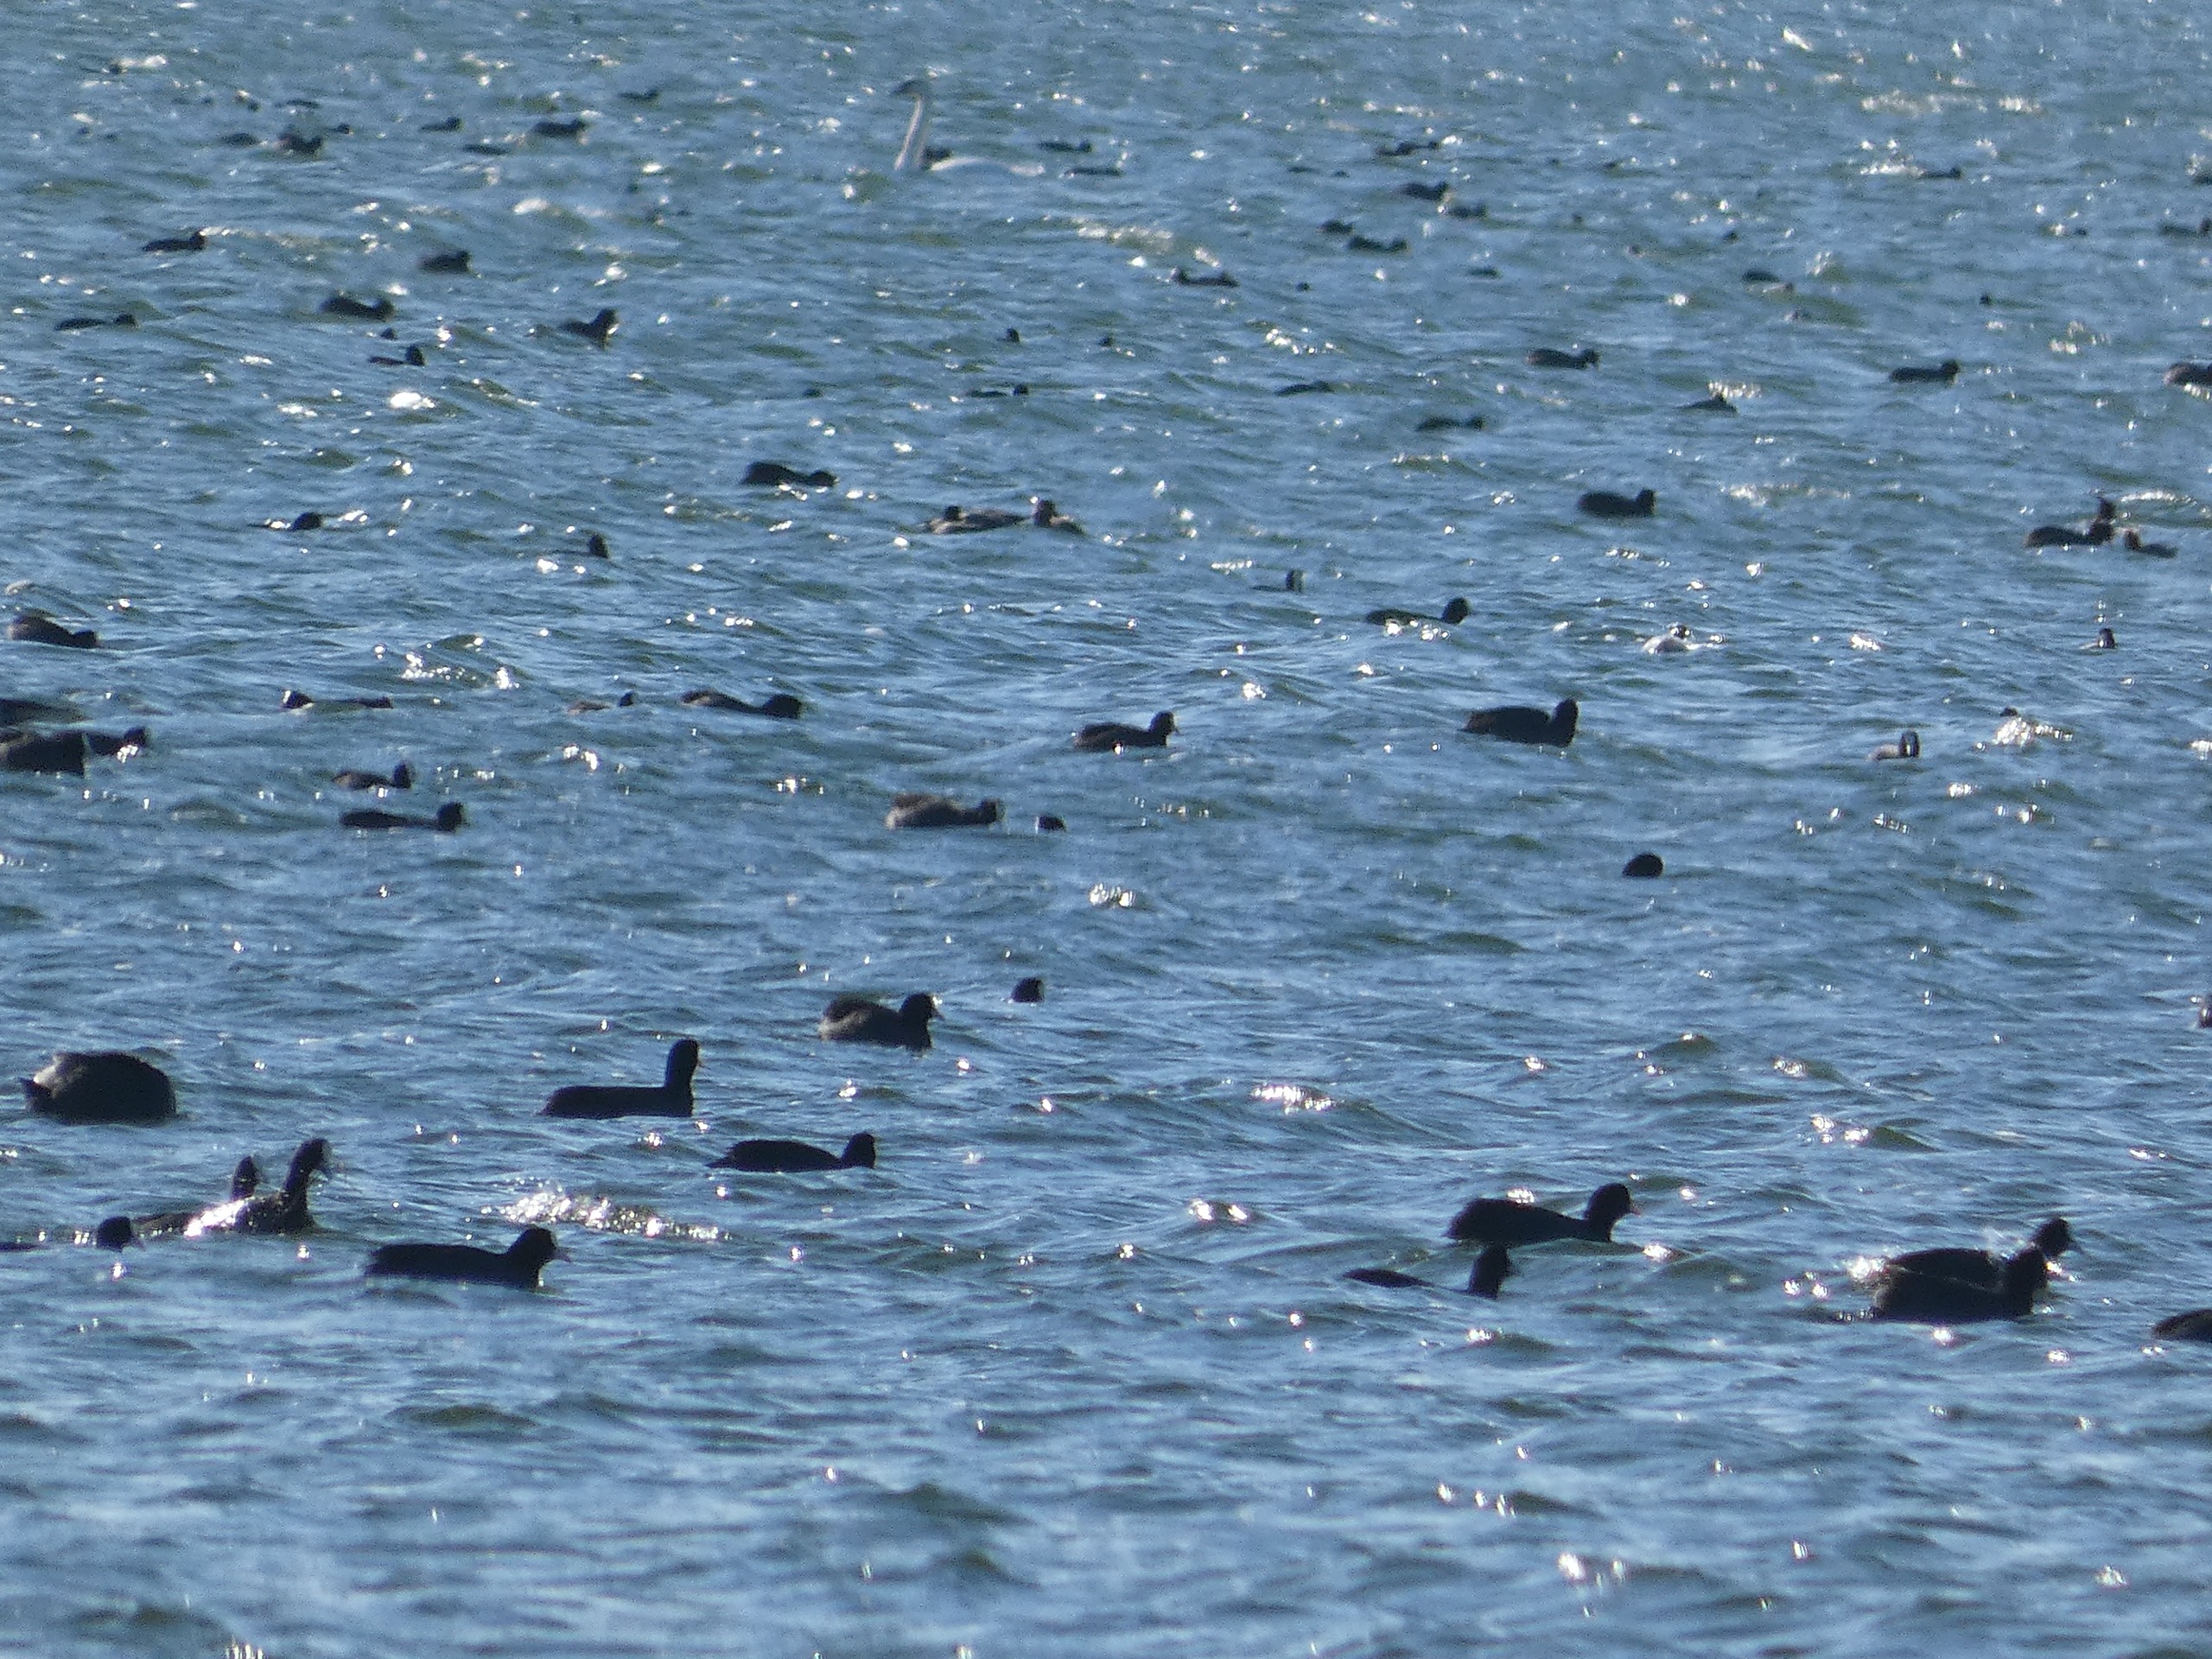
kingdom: Animalia
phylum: Chordata
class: Aves
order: Gruiformes
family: Rallidae
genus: Fulica
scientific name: Fulica atra
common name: Blishøne
